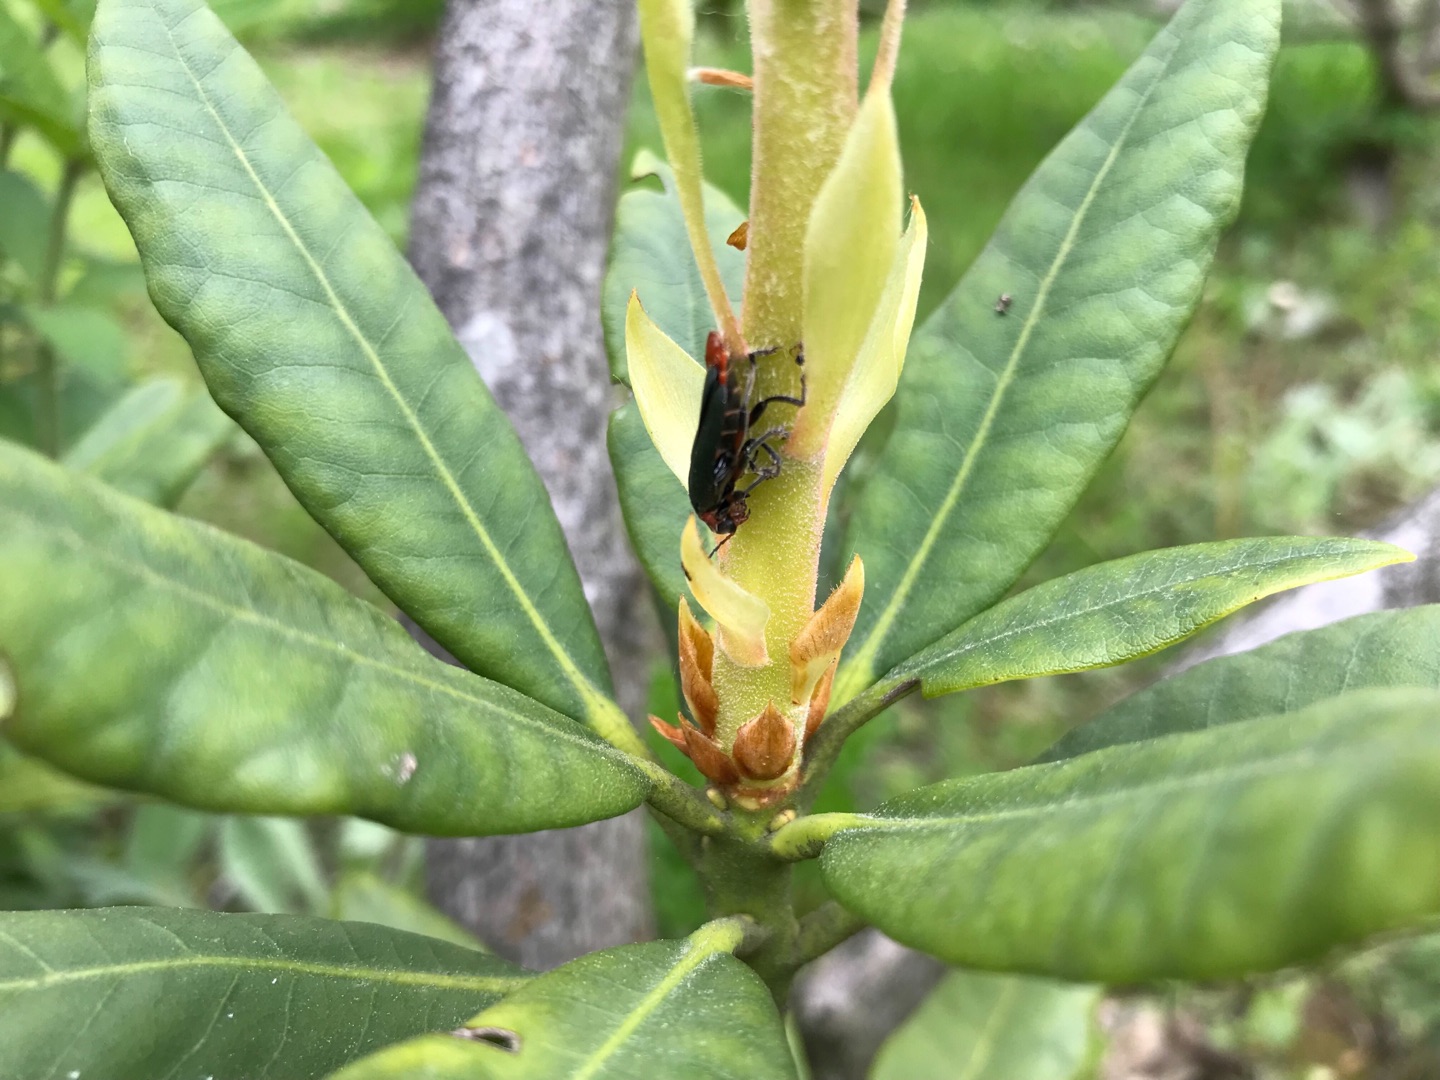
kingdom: Animalia
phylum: Arthropoda
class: Insecta
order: Coleoptera
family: Cantharidae
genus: Cantharis
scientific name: Cantharis rustica
